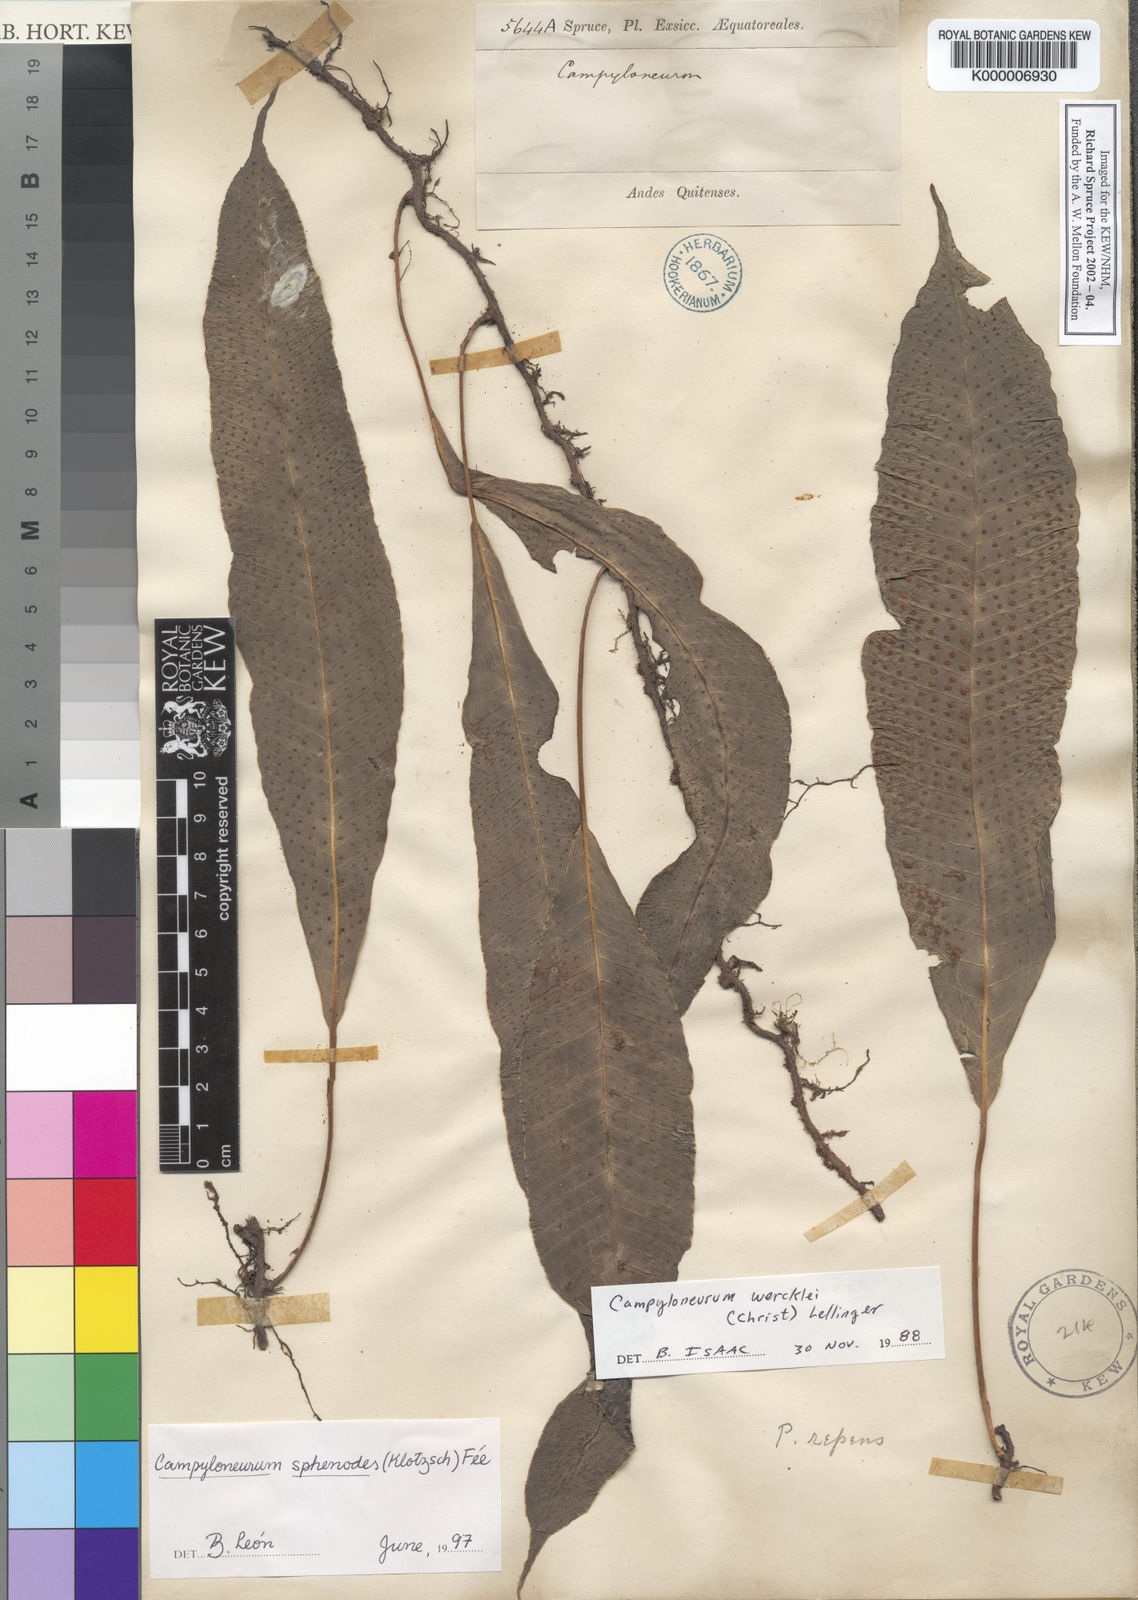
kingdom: Plantae
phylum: Tracheophyta
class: Polypodiopsida
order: Polypodiales
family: Polypodiaceae
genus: Campyloneurum
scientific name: Campyloneurum
